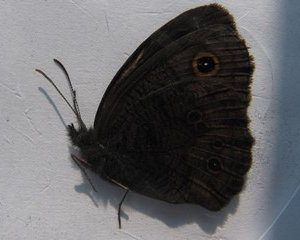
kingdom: Animalia
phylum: Arthropoda
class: Insecta
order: Lepidoptera
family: Nymphalidae
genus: Cercyonis
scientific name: Cercyonis pegala
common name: Common Wood-Nymph
